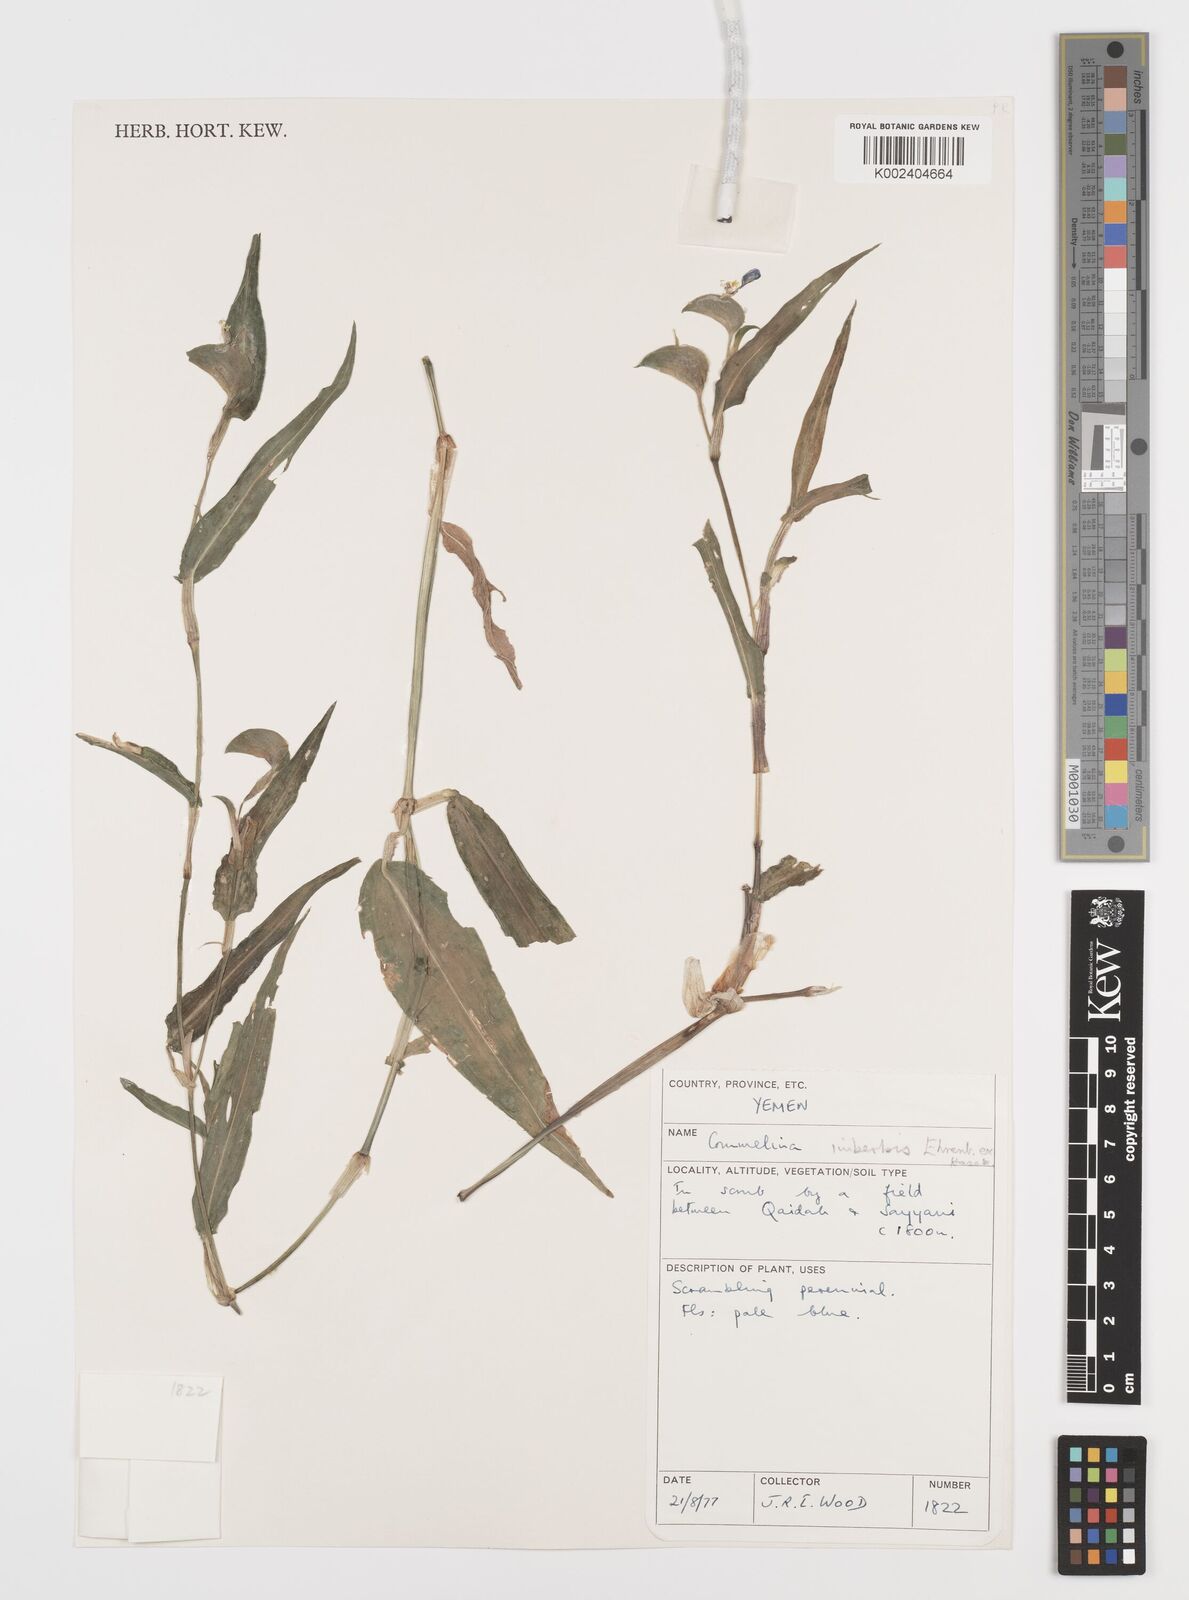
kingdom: Plantae
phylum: Tracheophyta
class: Liliopsida
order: Commelinales
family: Commelinaceae
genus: Commelina
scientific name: Commelina imberbis
